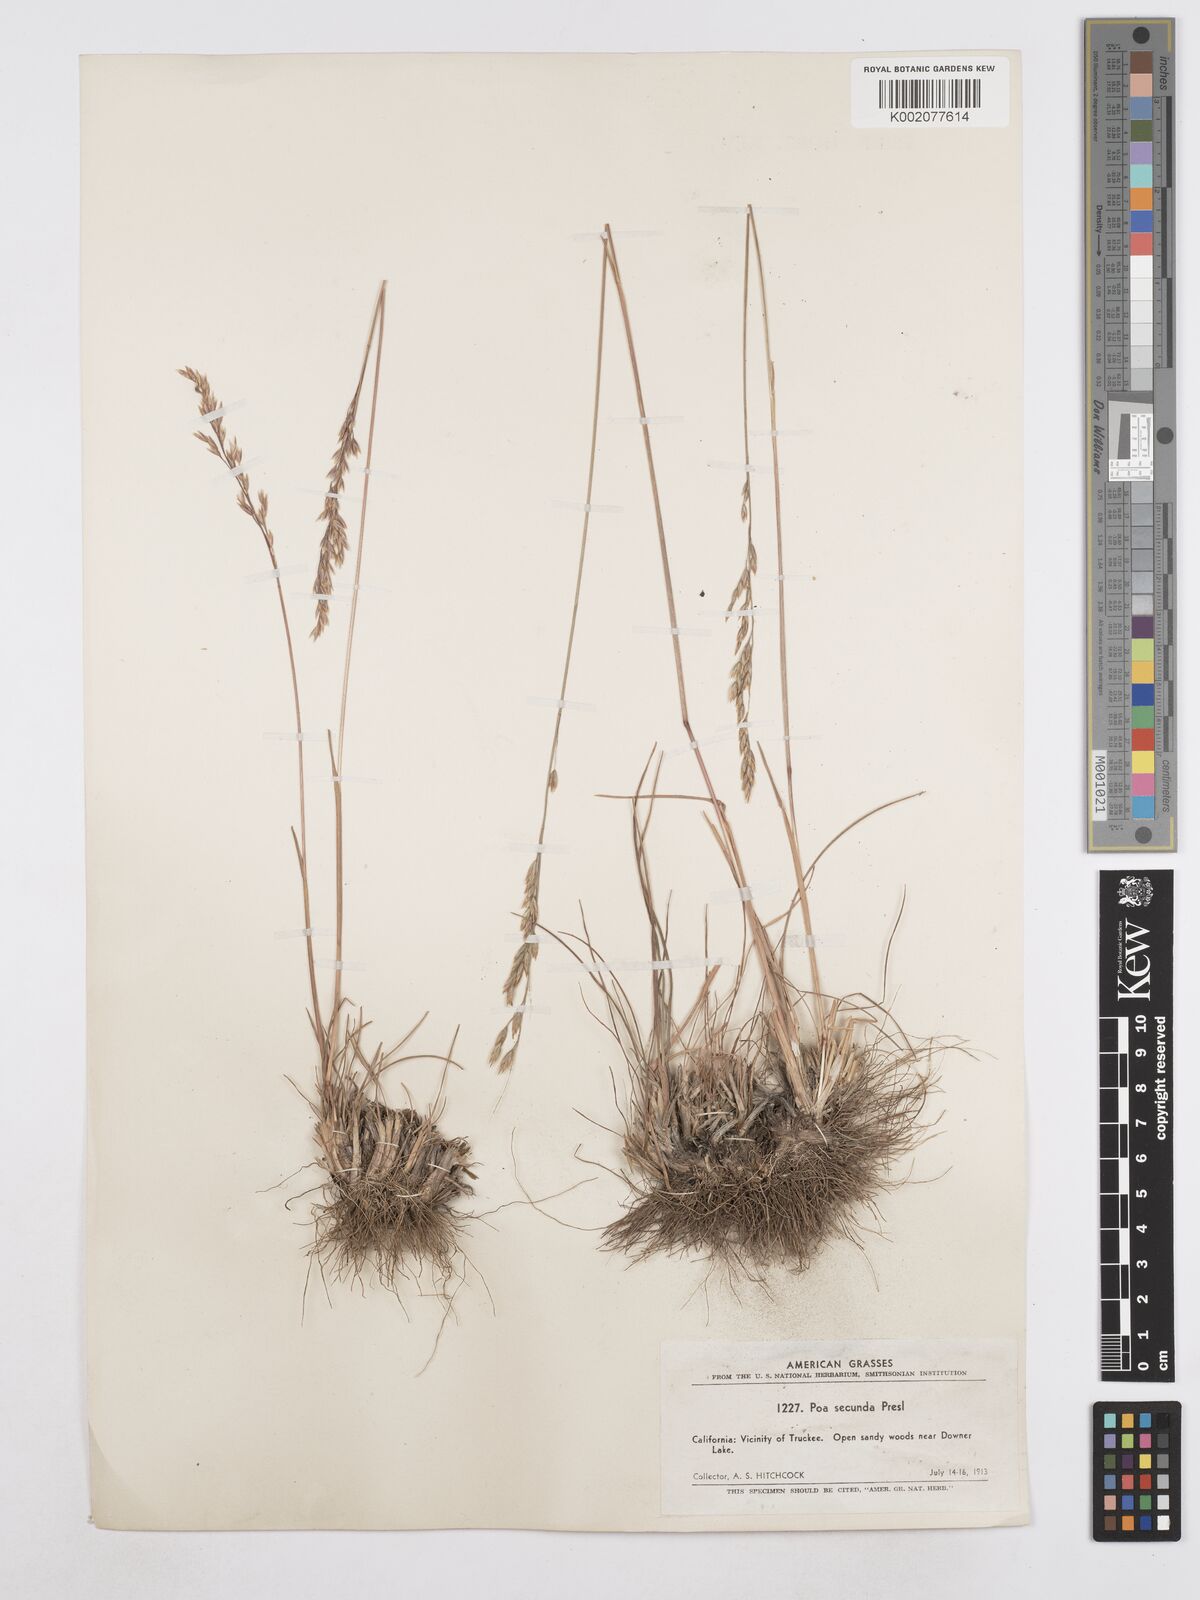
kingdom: Plantae
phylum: Tracheophyta
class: Liliopsida
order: Poales
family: Poaceae
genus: Poa
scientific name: Poa secunda
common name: Sandberg bluegrass
